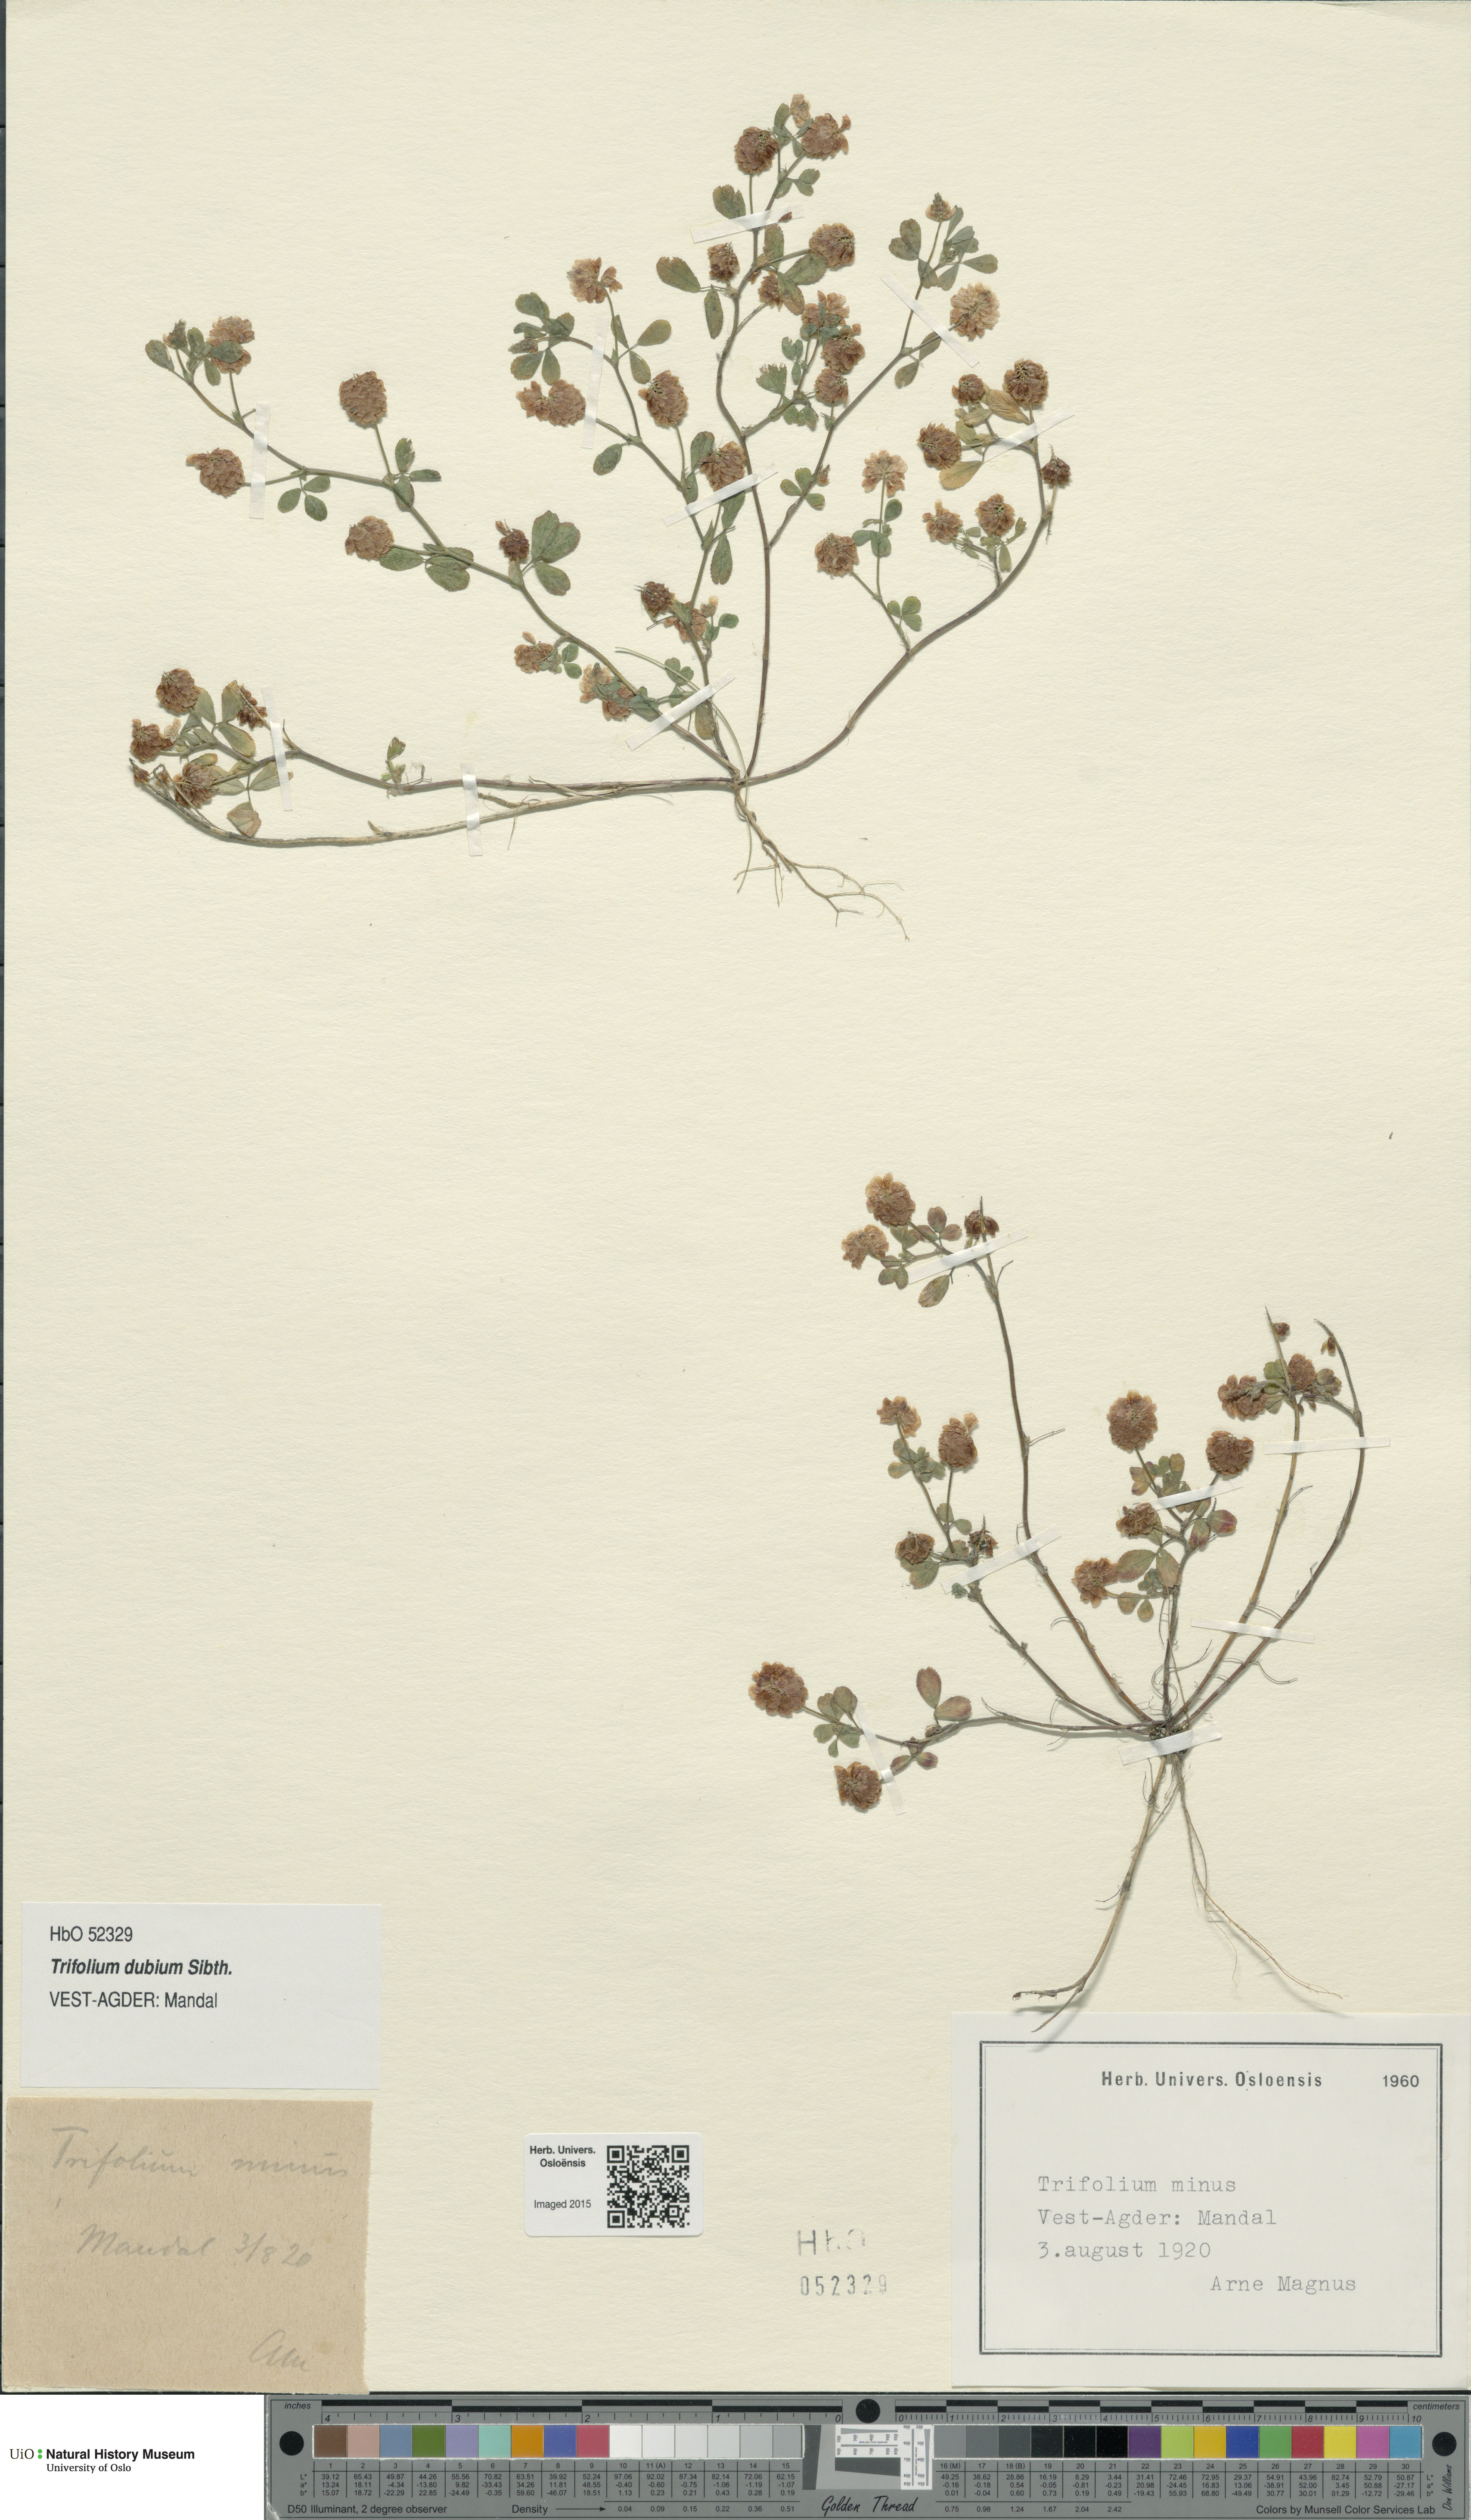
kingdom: Plantae
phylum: Tracheophyta
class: Magnoliopsida
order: Fabales
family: Fabaceae
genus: Trifolium
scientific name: Trifolium dubium
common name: Suckling clover
